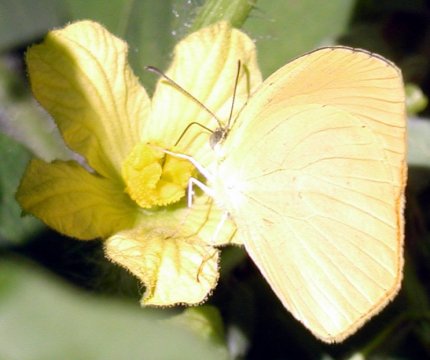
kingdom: Animalia
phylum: Arthropoda
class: Insecta
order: Lepidoptera
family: Pieridae
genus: Pyrisitia
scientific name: Pyrisitia proterpia
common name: Tailed Orange
